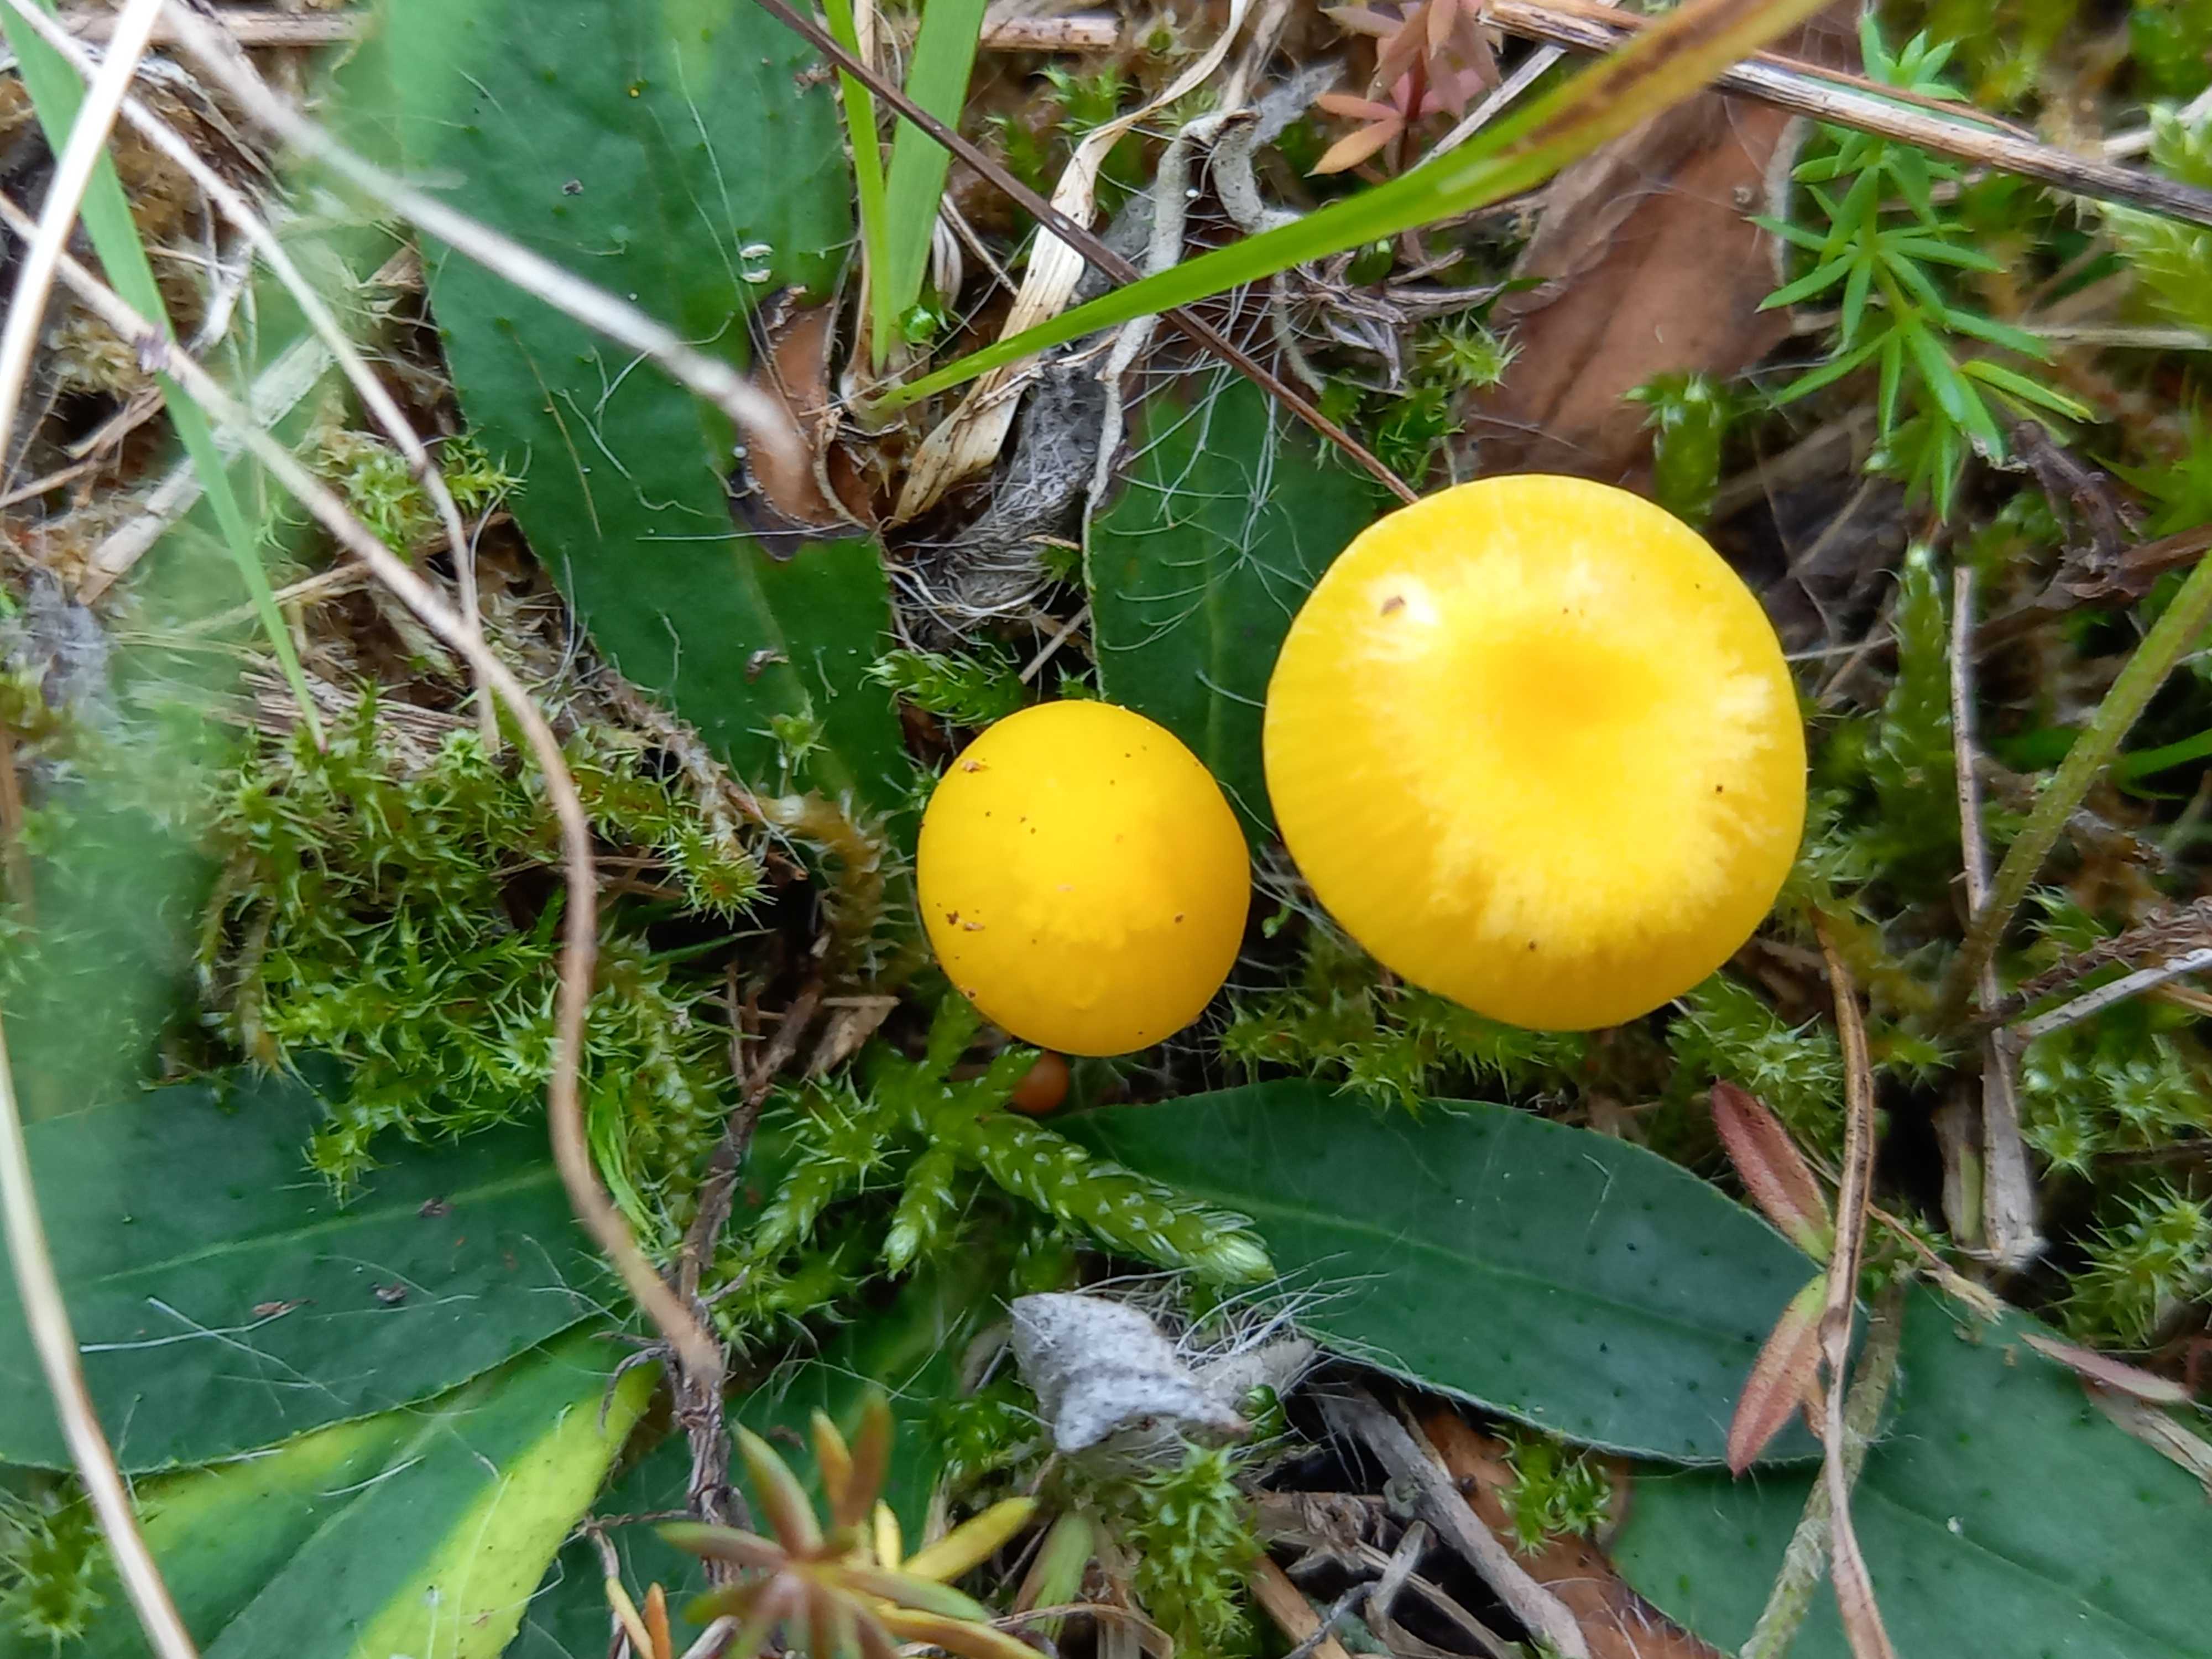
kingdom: Fungi
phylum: Basidiomycota
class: Agaricomycetes
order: Agaricales
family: Hygrophoraceae
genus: Hygrocybe
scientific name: Hygrocybe ceracea
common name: voksgul vokshat
